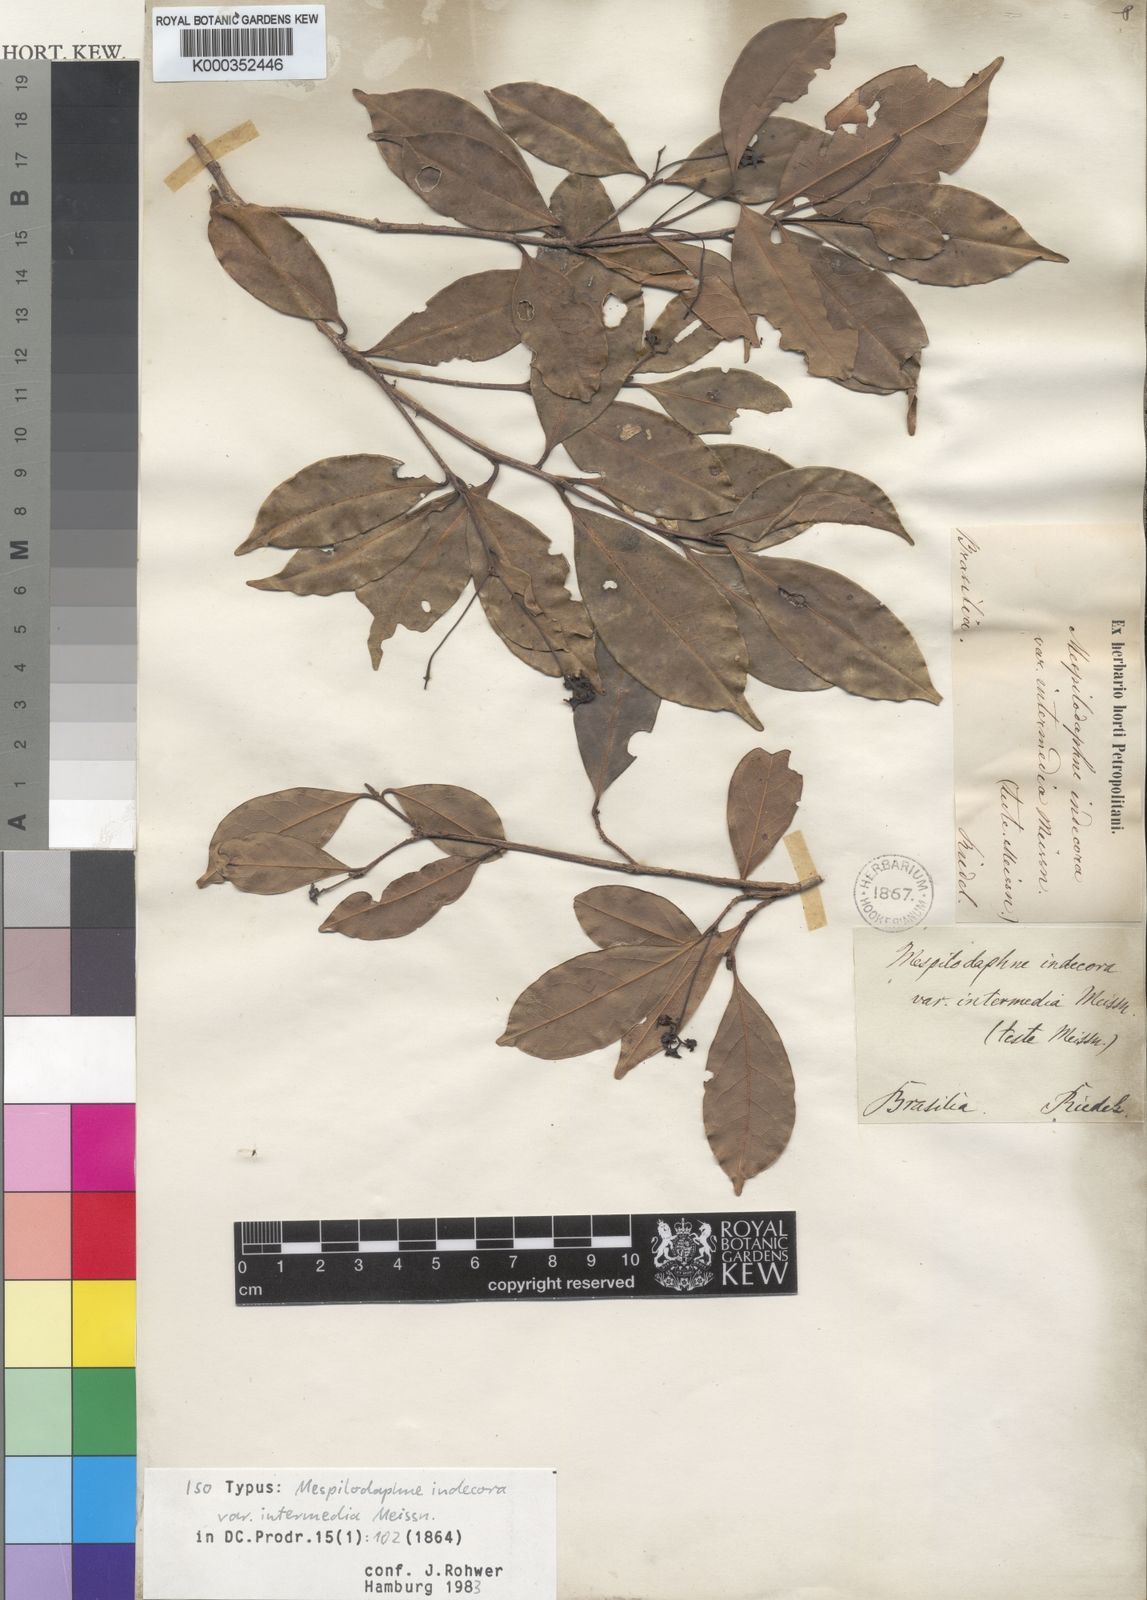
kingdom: Plantae
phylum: Tracheophyta
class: Magnoliopsida
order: Laurales
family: Lauraceae
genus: Ocotea
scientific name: Ocotea
